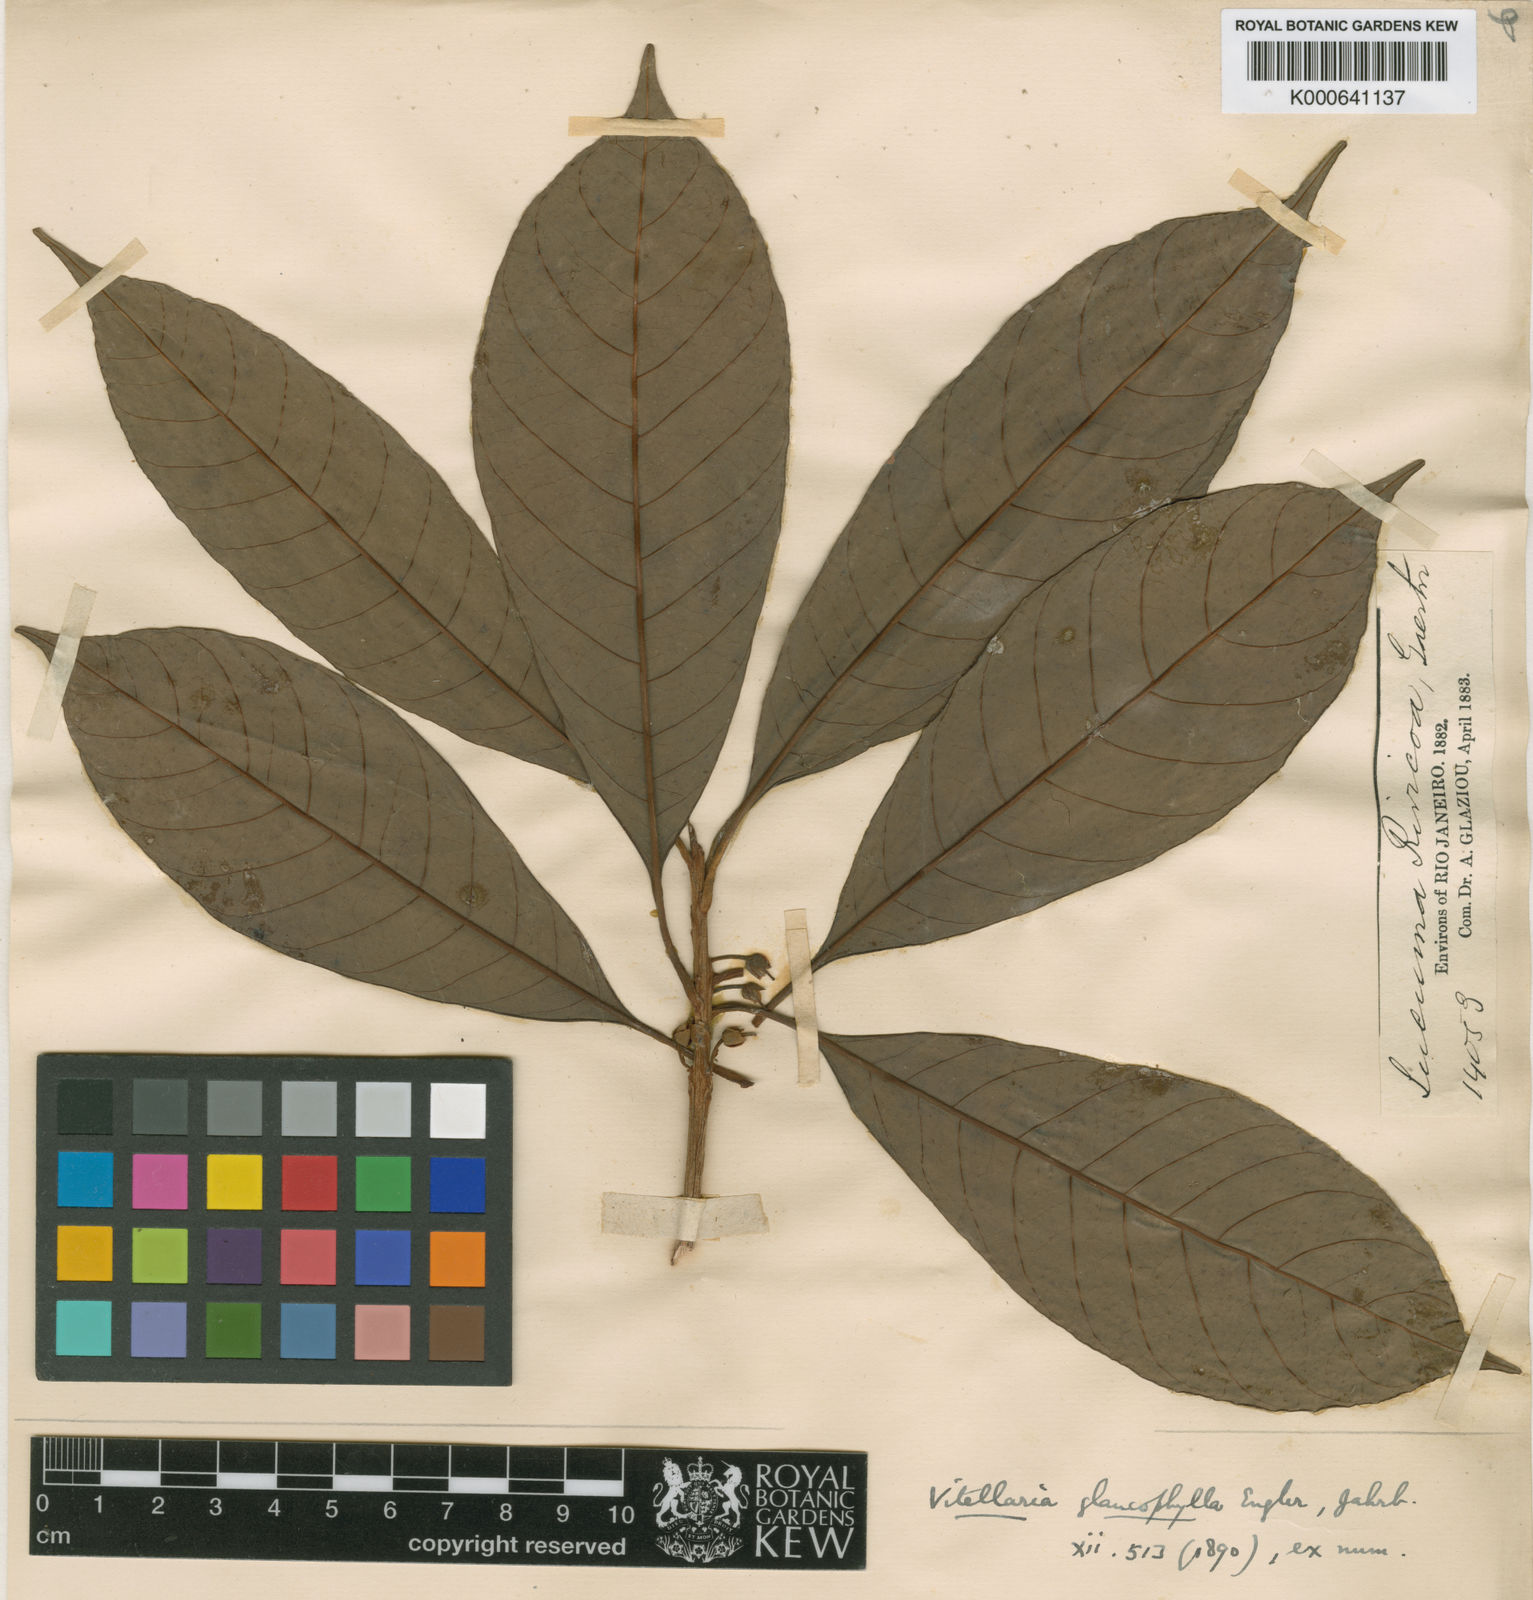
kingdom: Plantae
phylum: Tracheophyta
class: Magnoliopsida
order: Ericales
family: Sapotaceae
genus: Pouteria
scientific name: Pouteria macrophylla
